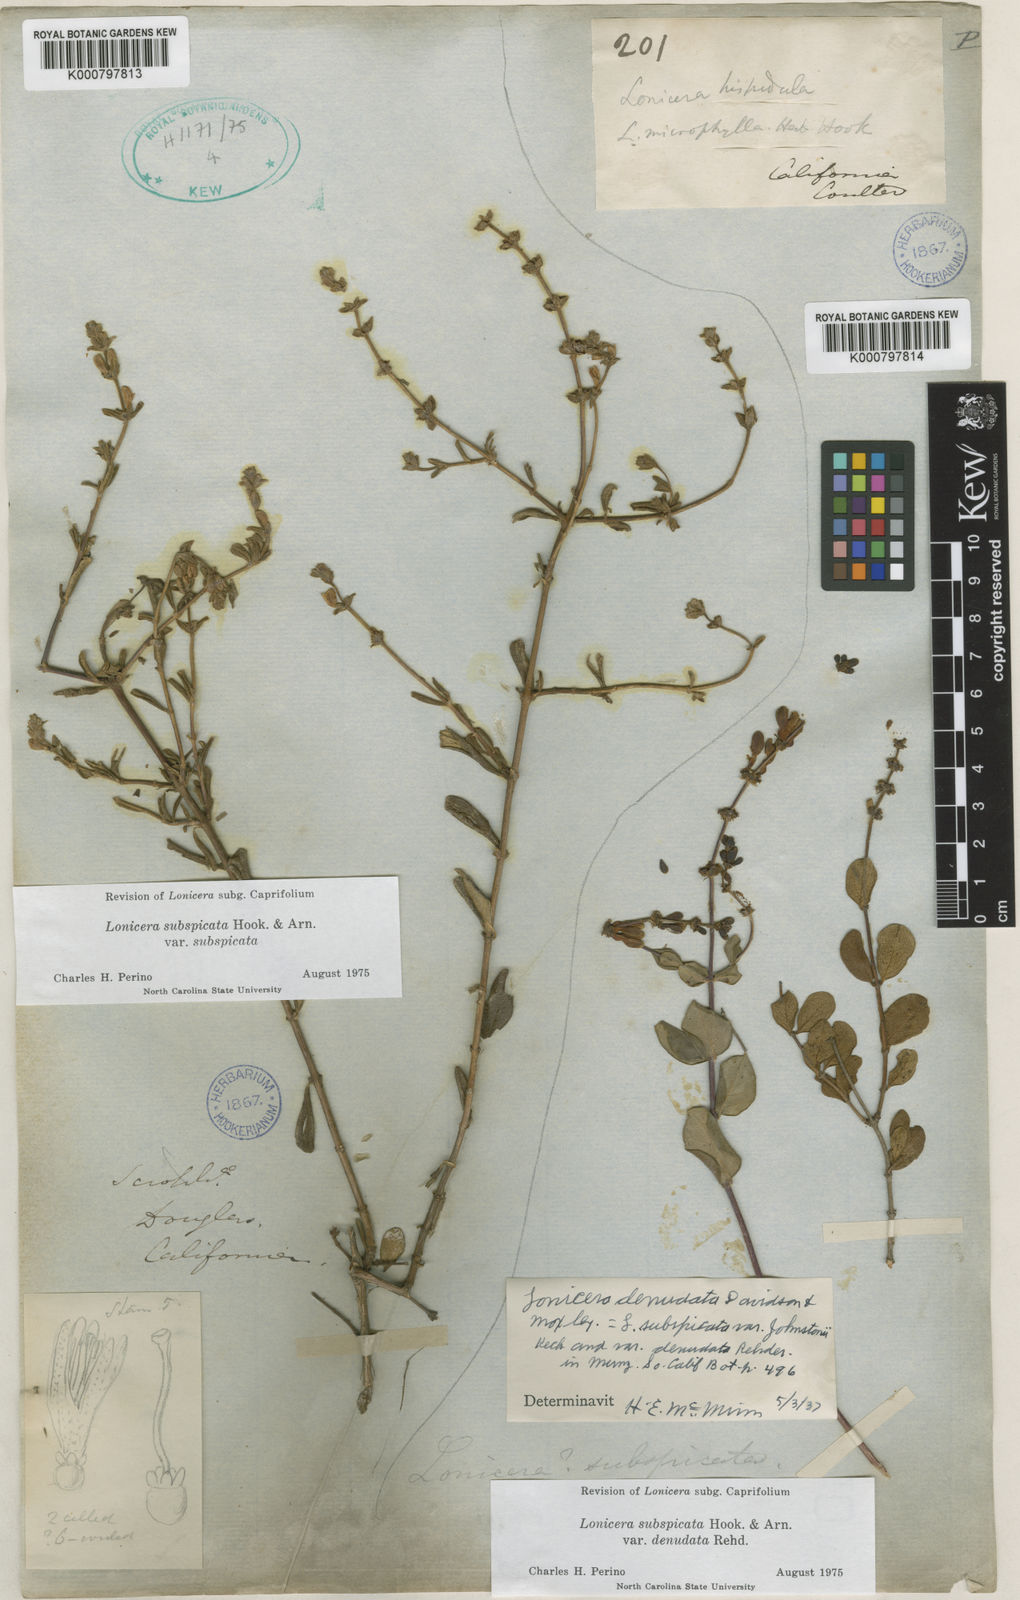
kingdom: Plantae
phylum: Tracheophyta
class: Magnoliopsida
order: Dipsacales
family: Caprifoliaceae
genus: Lonicera
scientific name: Lonicera subspicata
